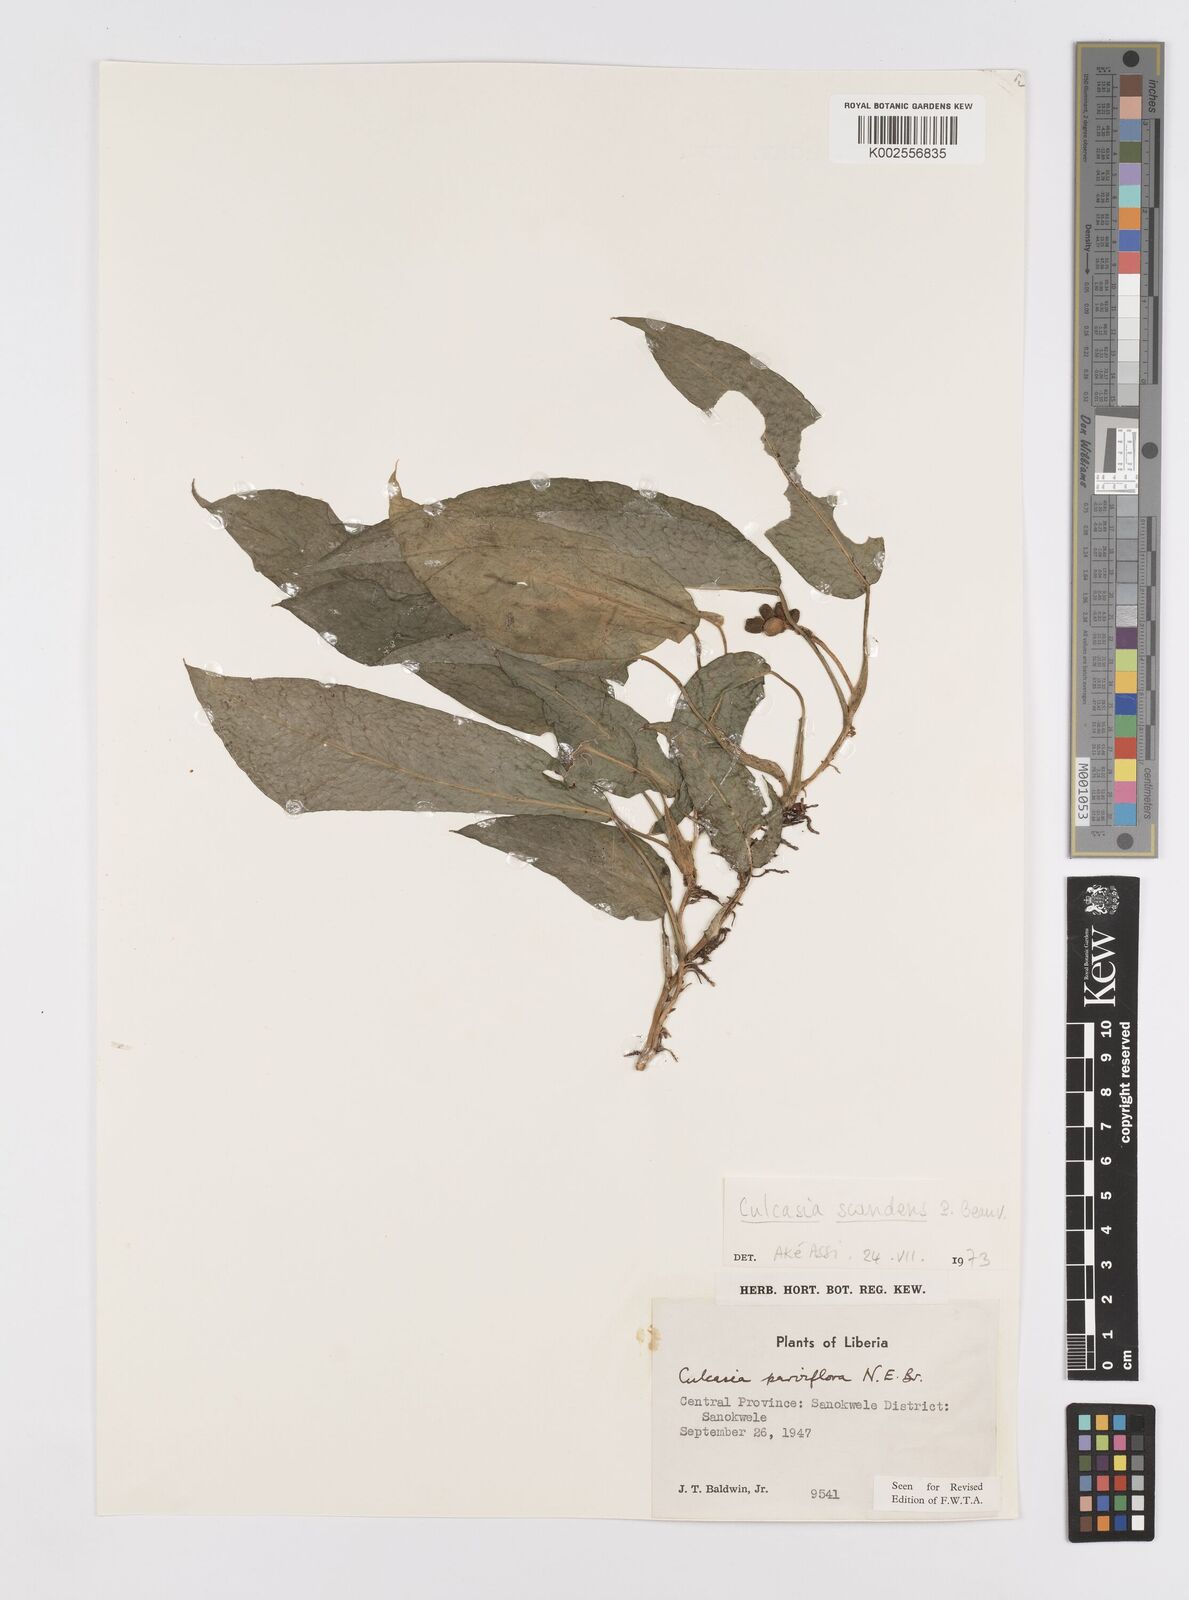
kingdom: Plantae
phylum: Tracheophyta
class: Liliopsida
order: Alismatales
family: Araceae
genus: Culcasia
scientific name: Culcasia parviflora
